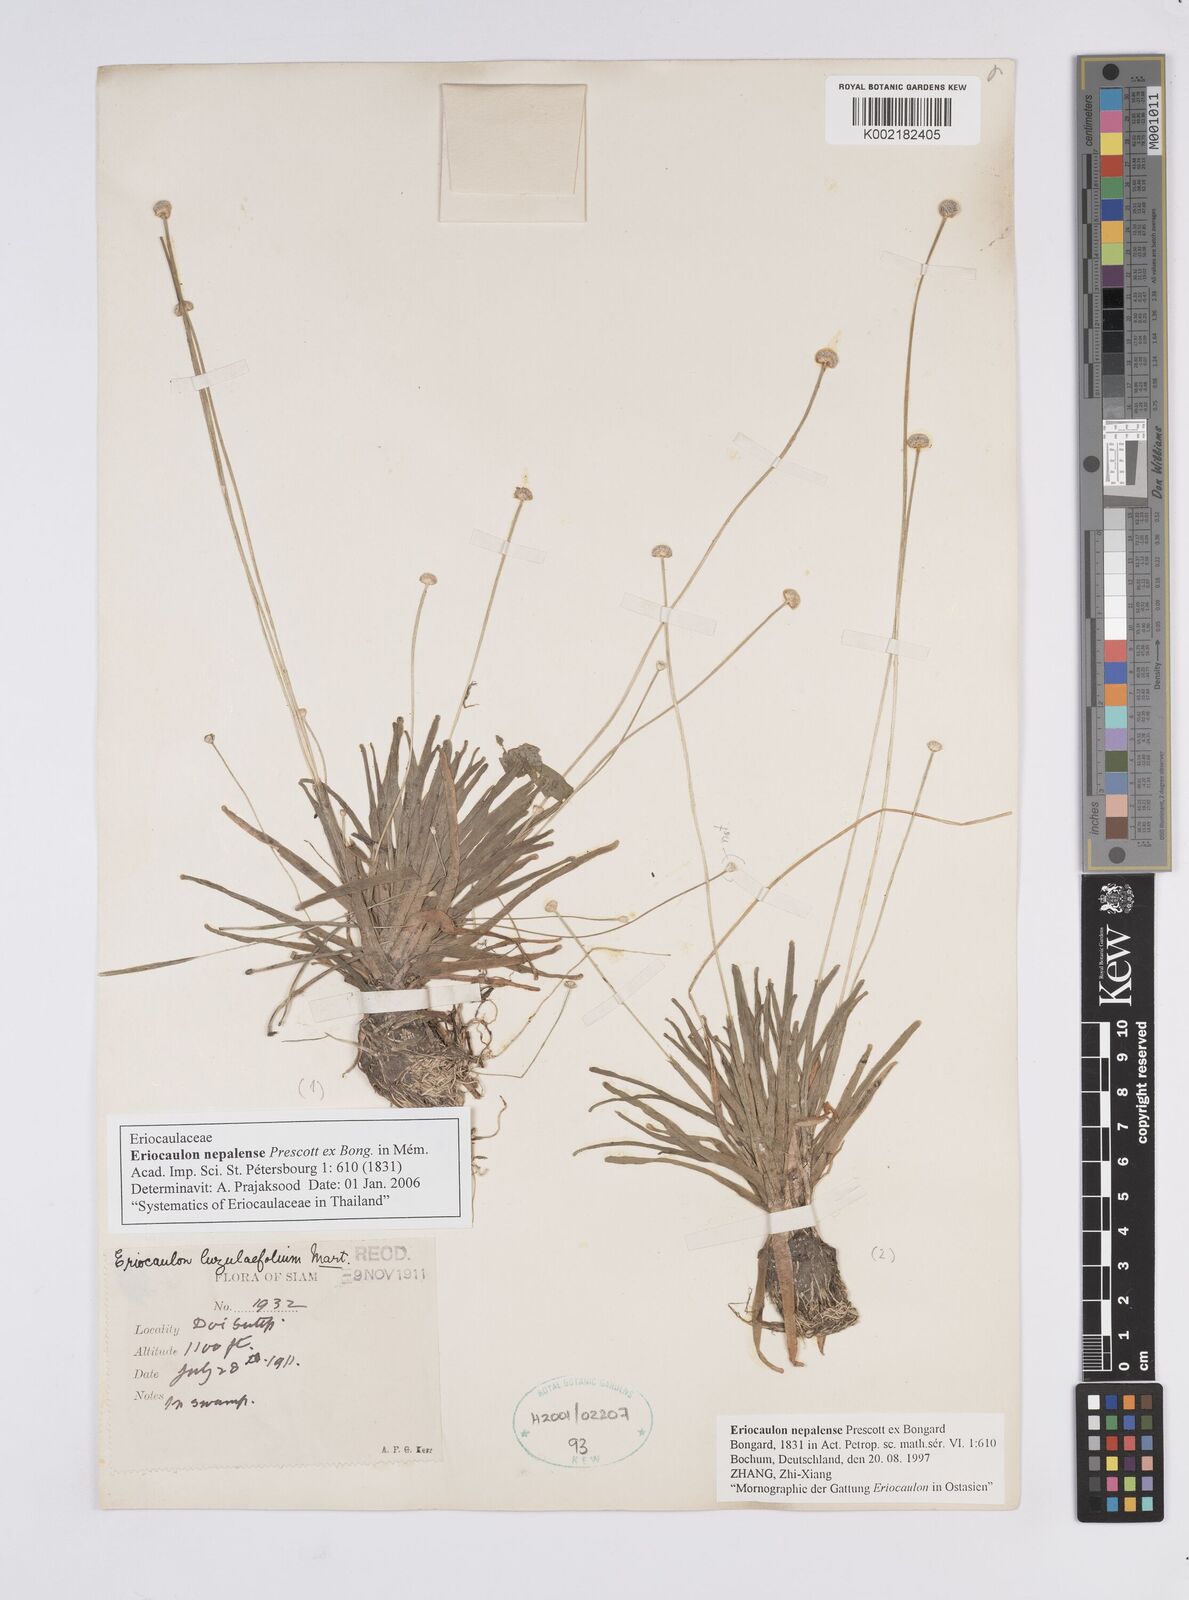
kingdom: Plantae
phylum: Tracheophyta
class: Liliopsida
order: Poales
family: Eriocaulaceae
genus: Eriocaulon
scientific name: Eriocaulon nepalense
